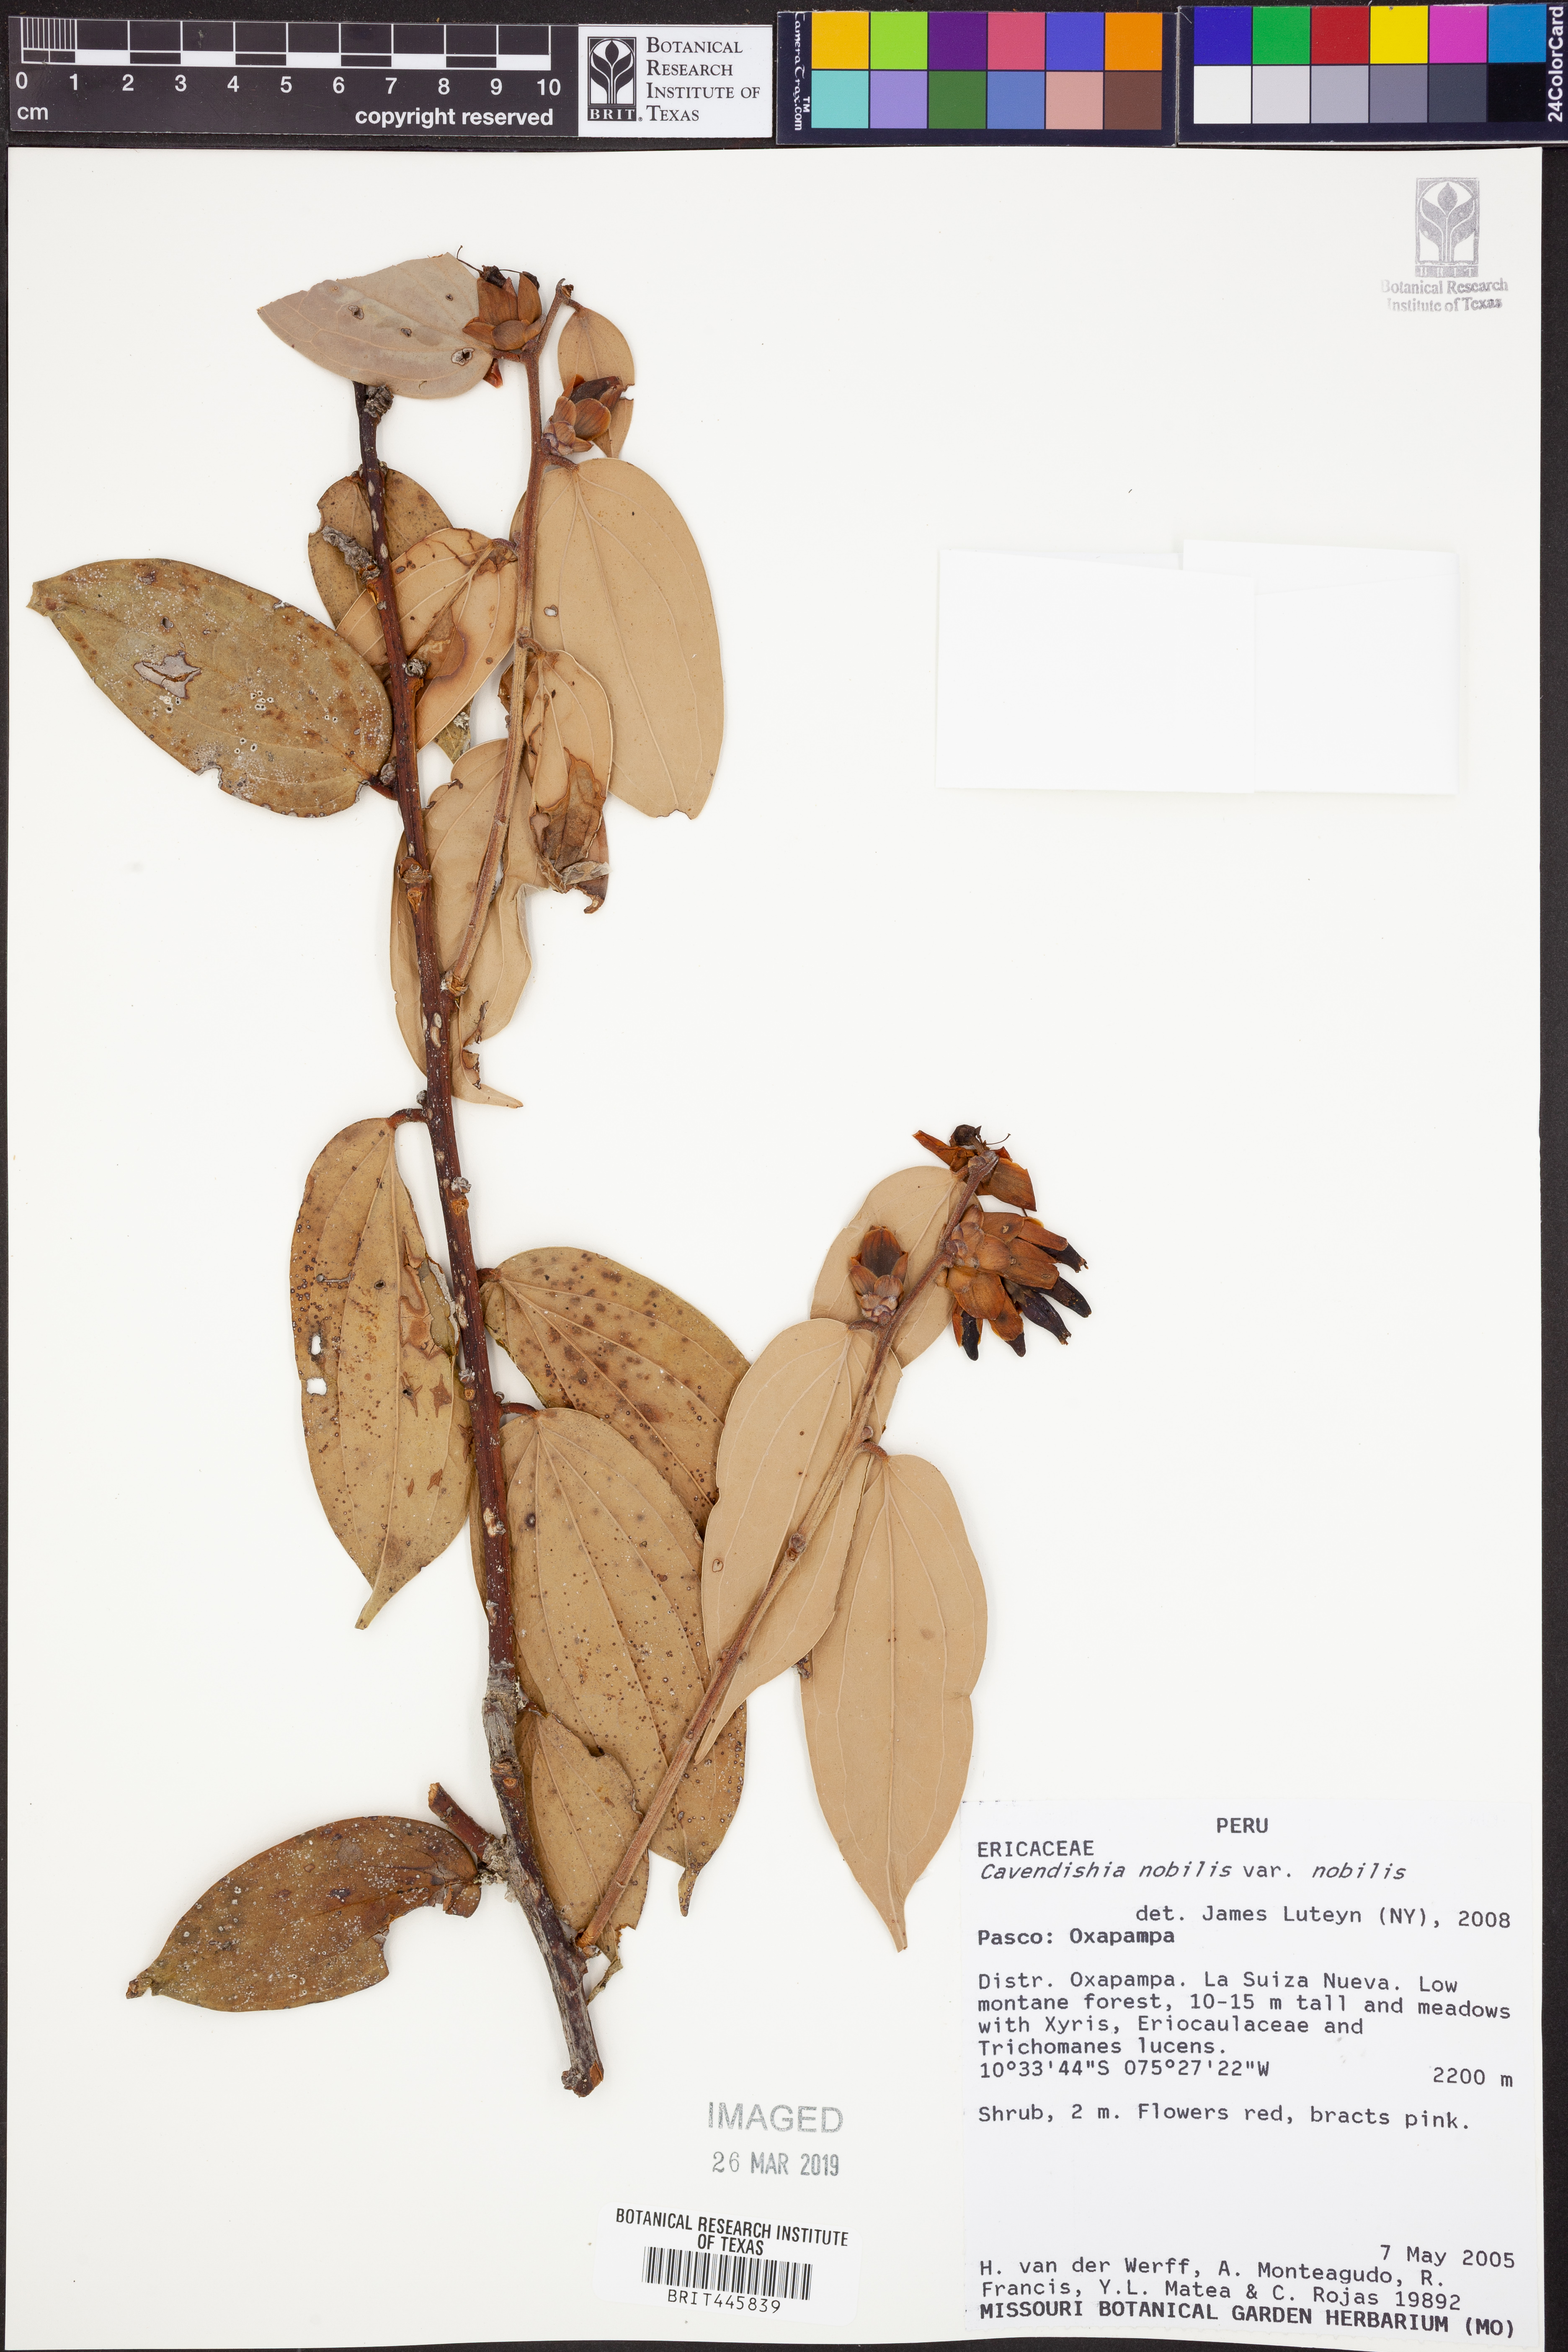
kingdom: Plantae
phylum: Tracheophyta
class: Magnoliopsida
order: Ericales
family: Ericaceae
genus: Cavendishia
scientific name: Cavendishia nobilis
